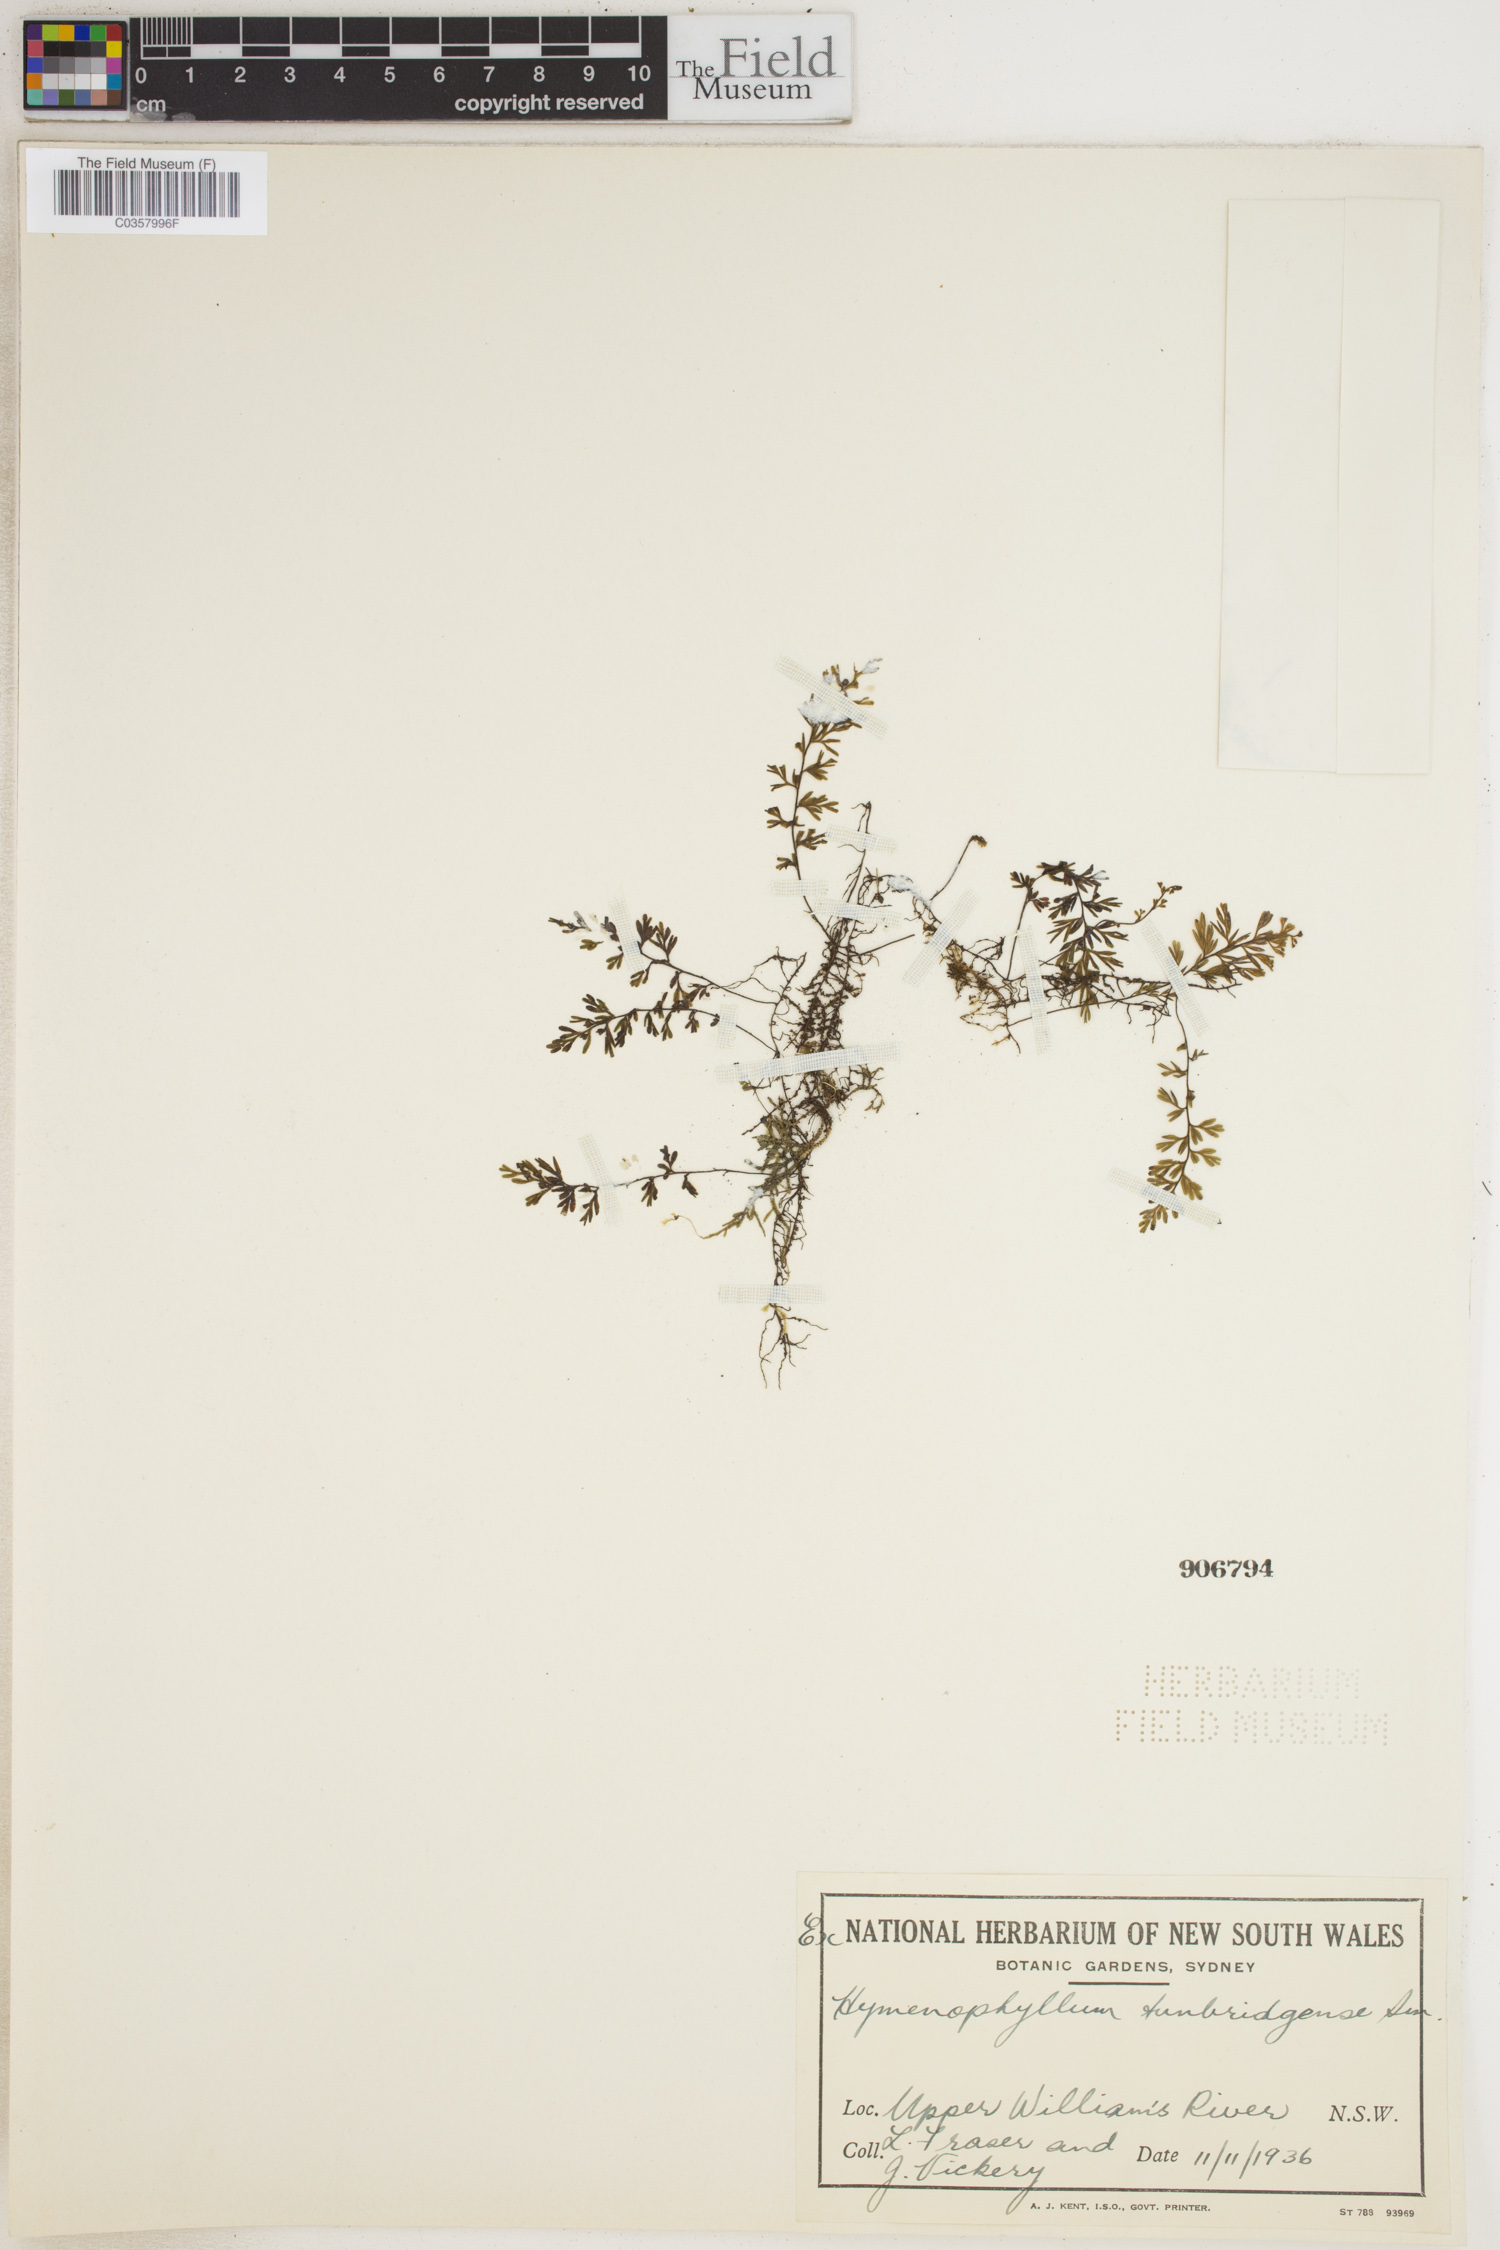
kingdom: Plantae
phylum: Tracheophyta
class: Polypodiopsida
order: Hymenophyllales
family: Hymenophyllaceae
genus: Hymenophyllum
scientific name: Hymenophyllum tunbridgense
